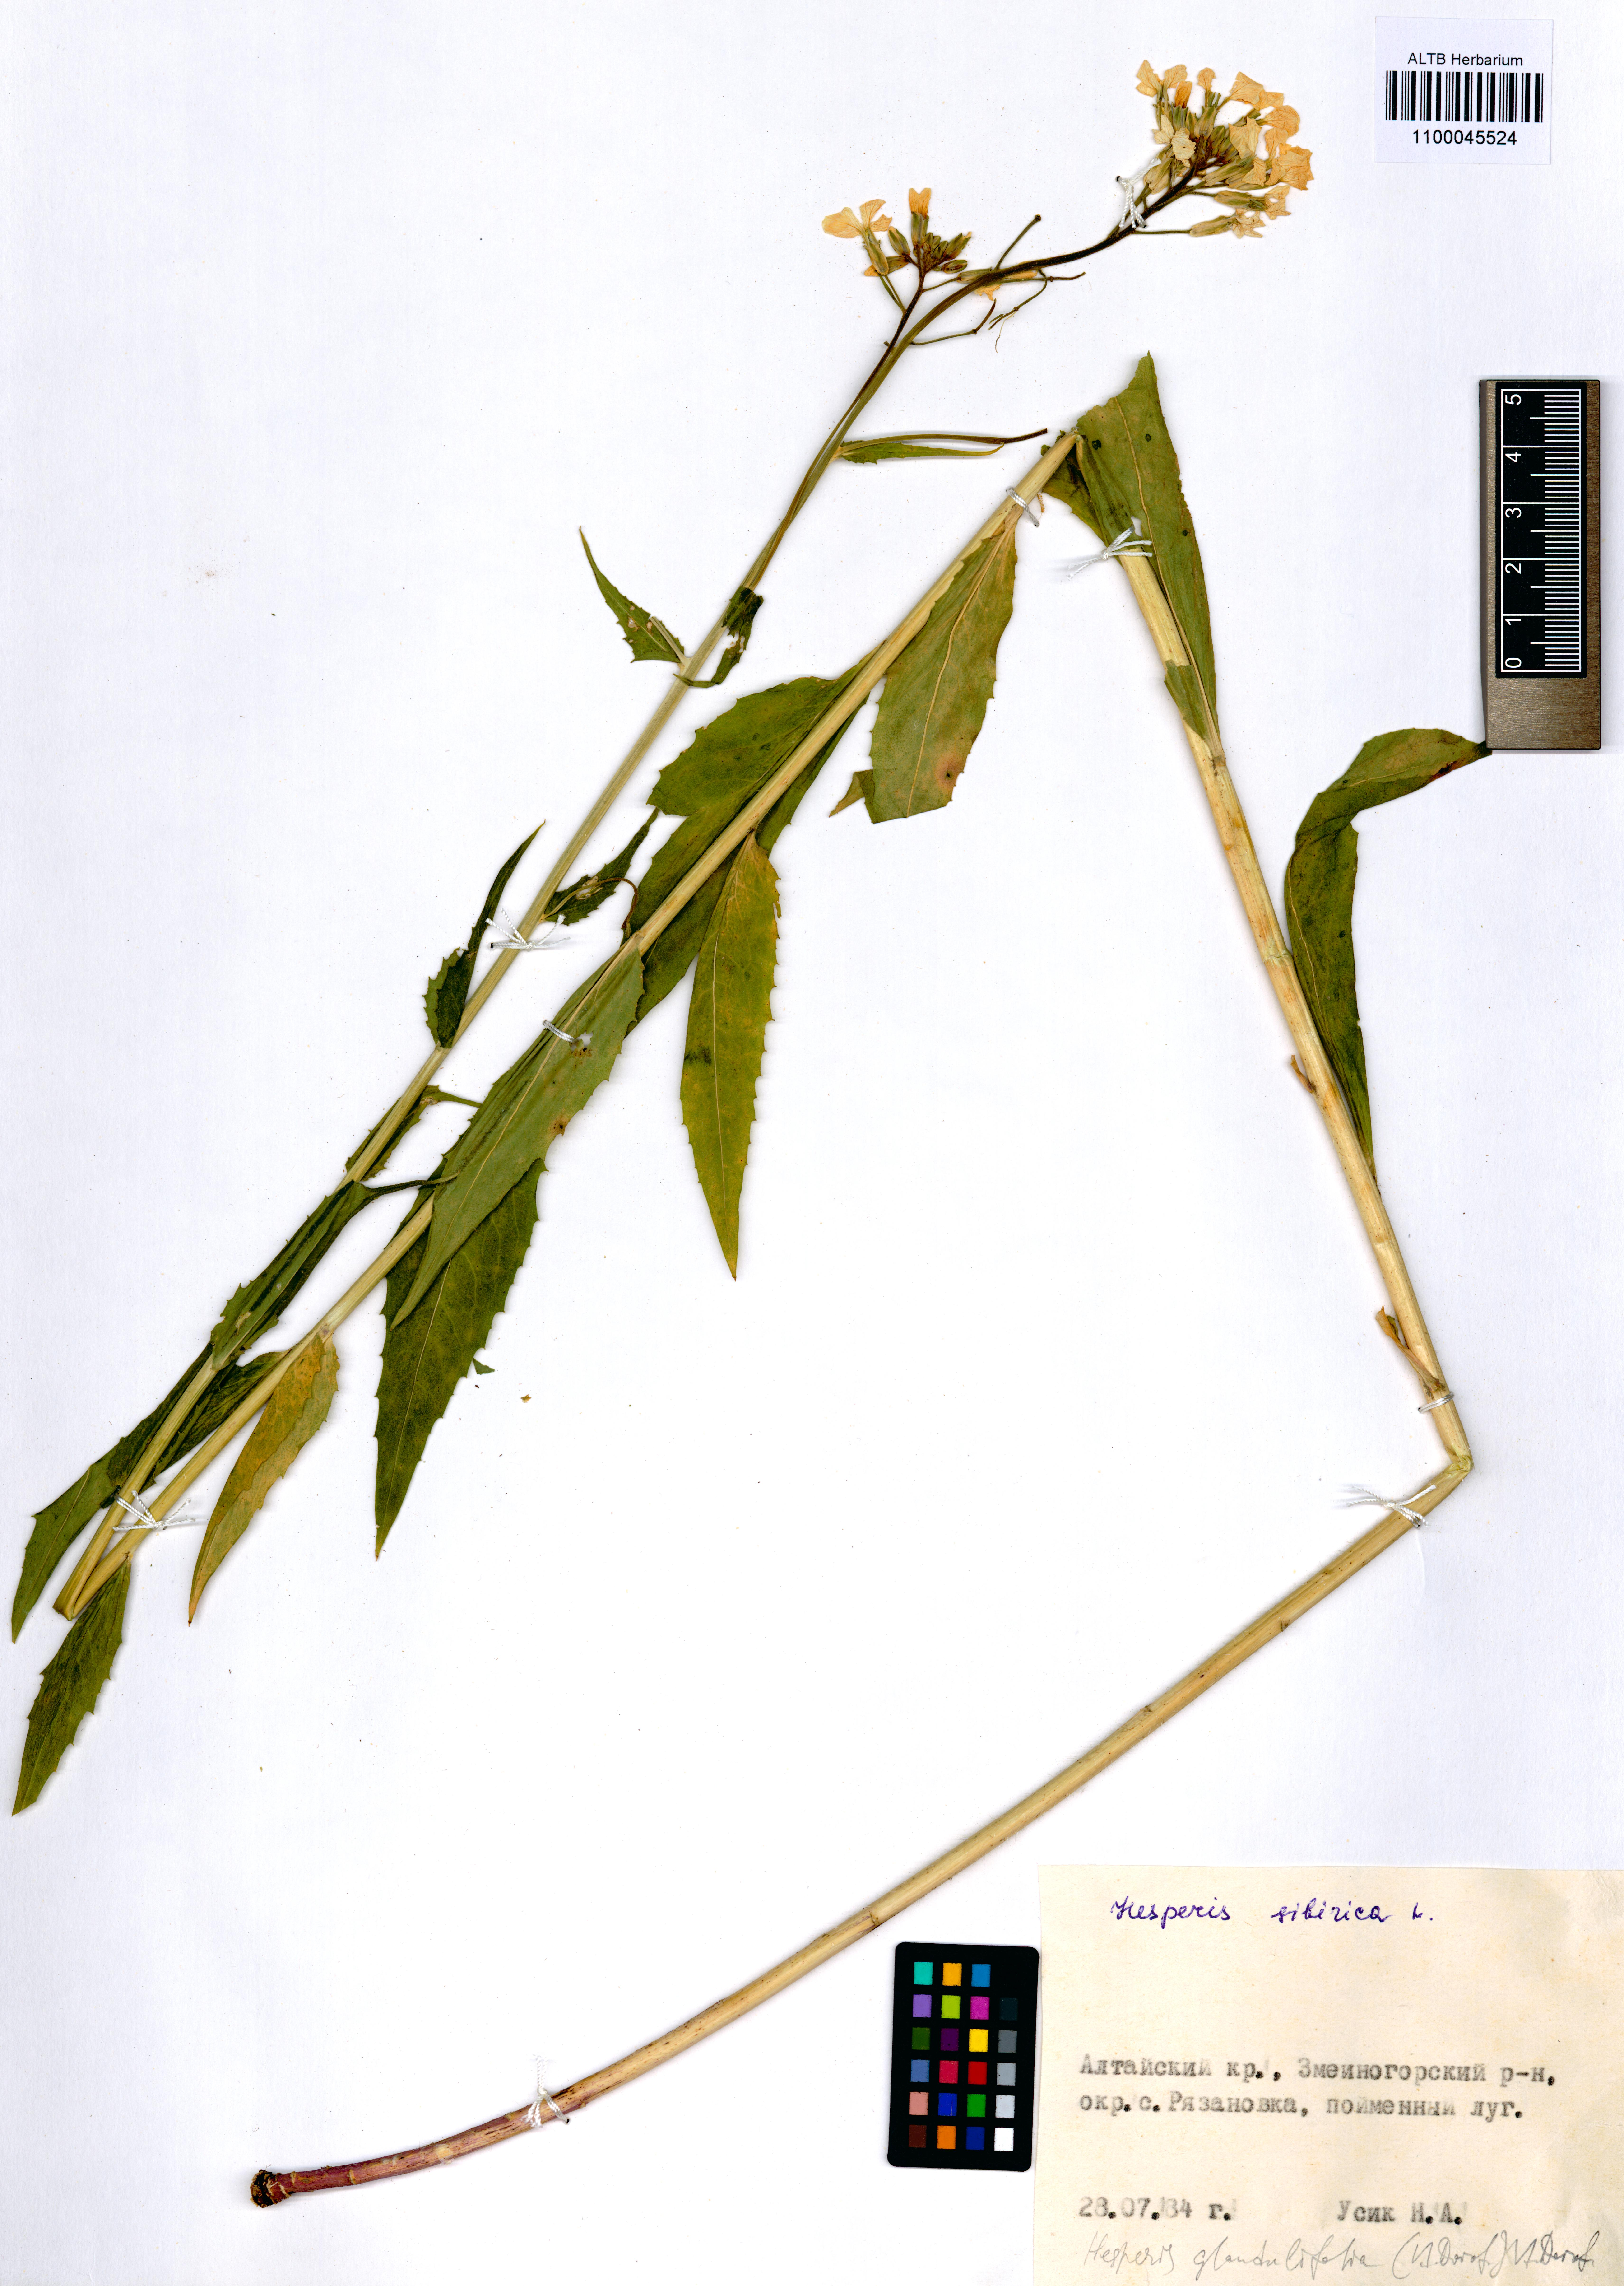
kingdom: Plantae
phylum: Tracheophyta
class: Magnoliopsida
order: Brassicales
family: Brassicaceae
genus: Hesperis
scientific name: Hesperis sibirica
